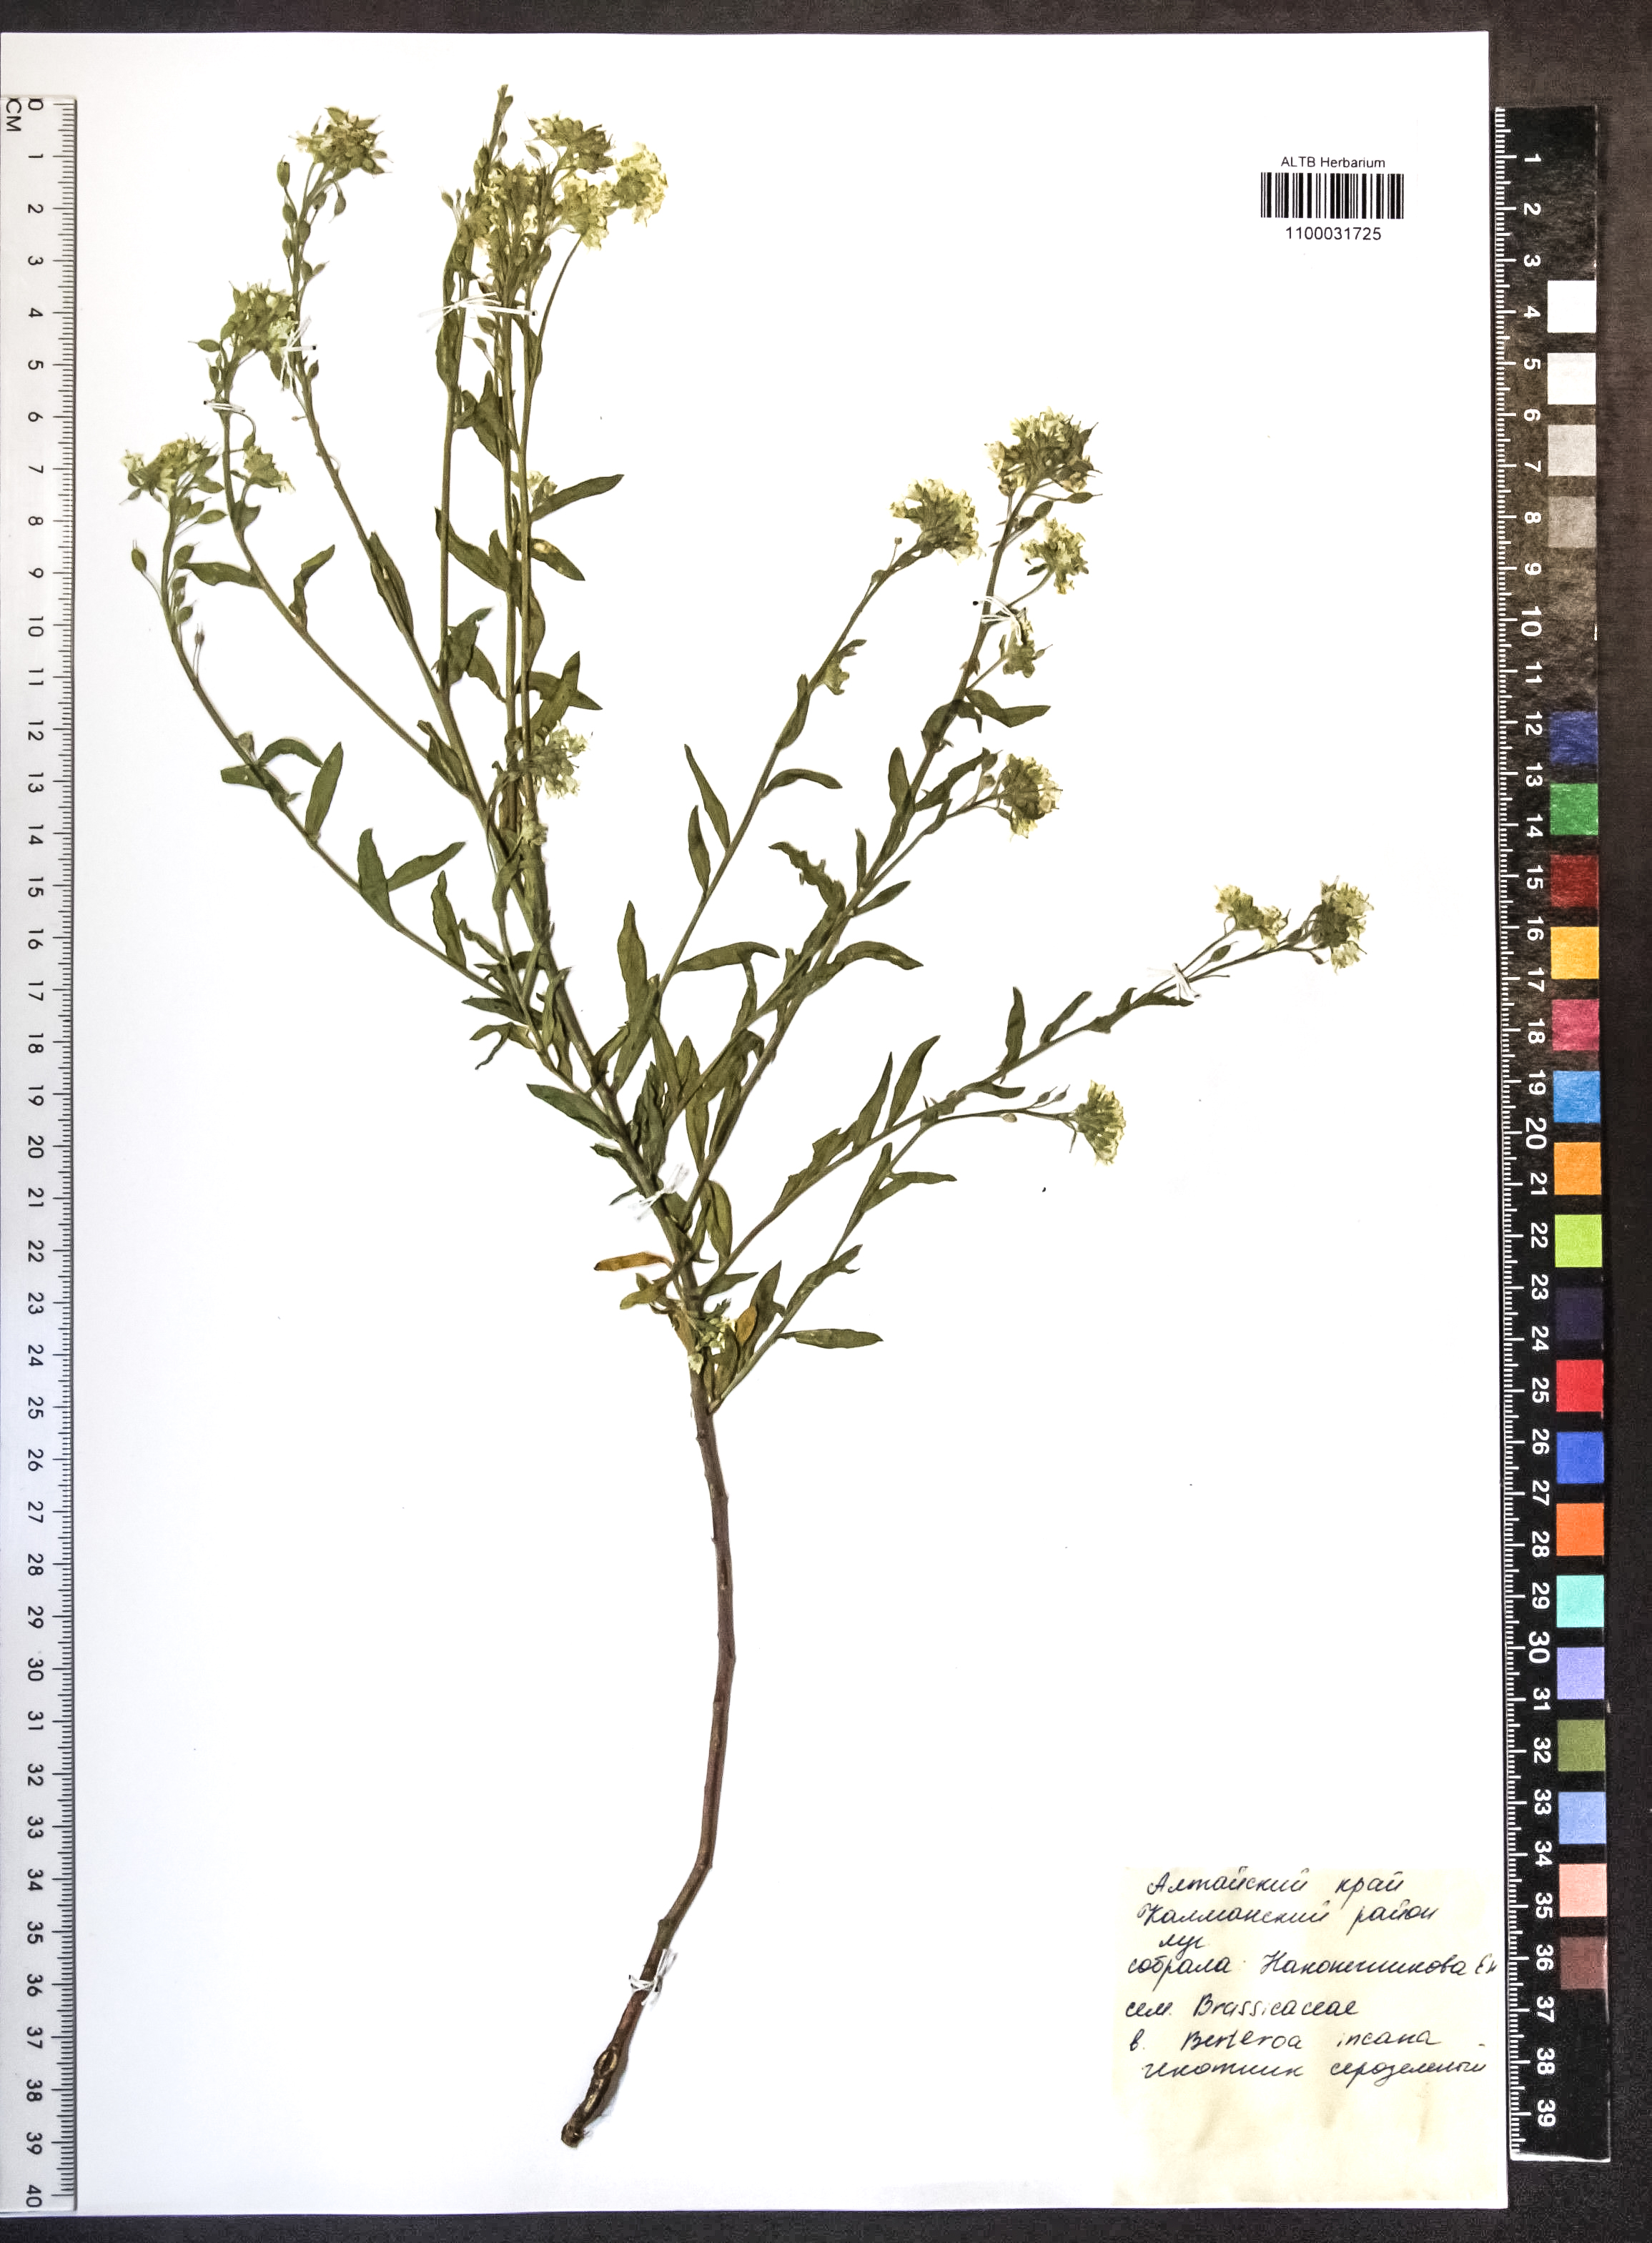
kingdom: Plantae
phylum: Tracheophyta
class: Magnoliopsida
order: Brassicales
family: Brassicaceae
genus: Berteroa
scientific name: Berteroa incana
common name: Hoary alison
